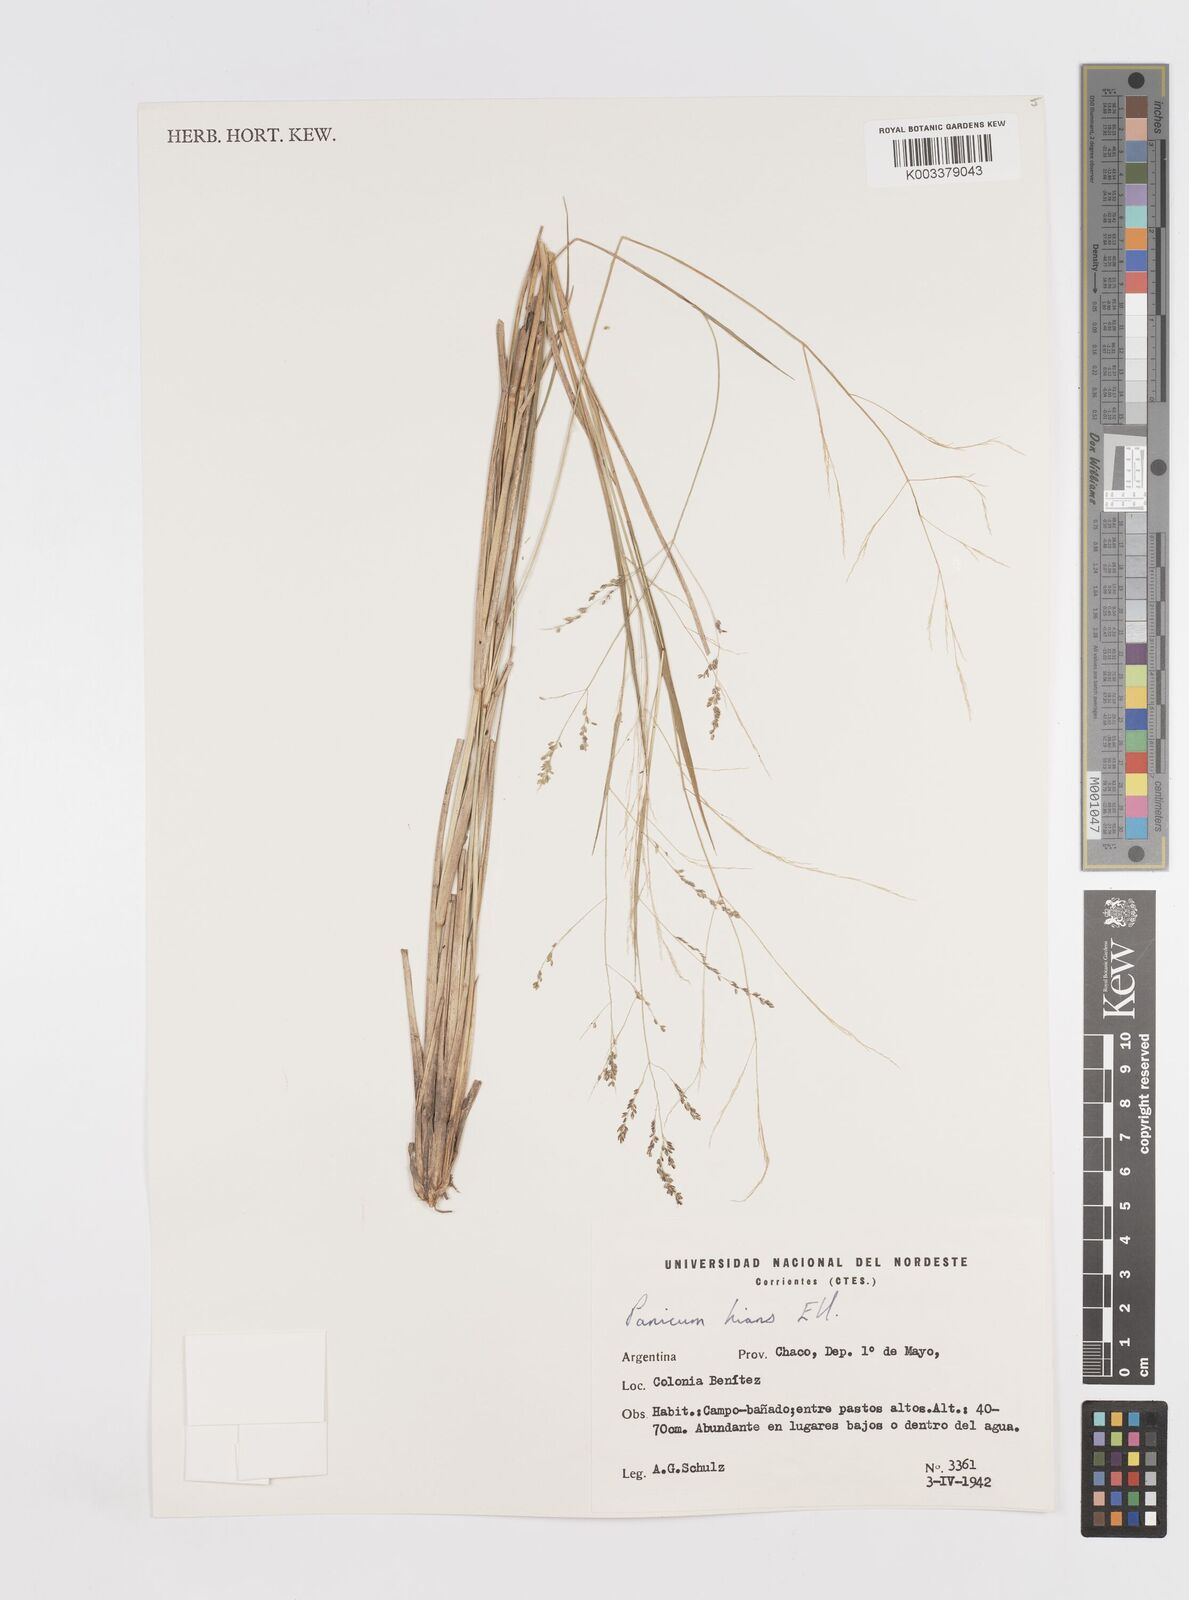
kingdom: Plantae
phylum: Tracheophyta
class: Liliopsida
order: Poales
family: Poaceae
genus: Steinchisma
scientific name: Steinchisma hians
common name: Gaping panic grass
